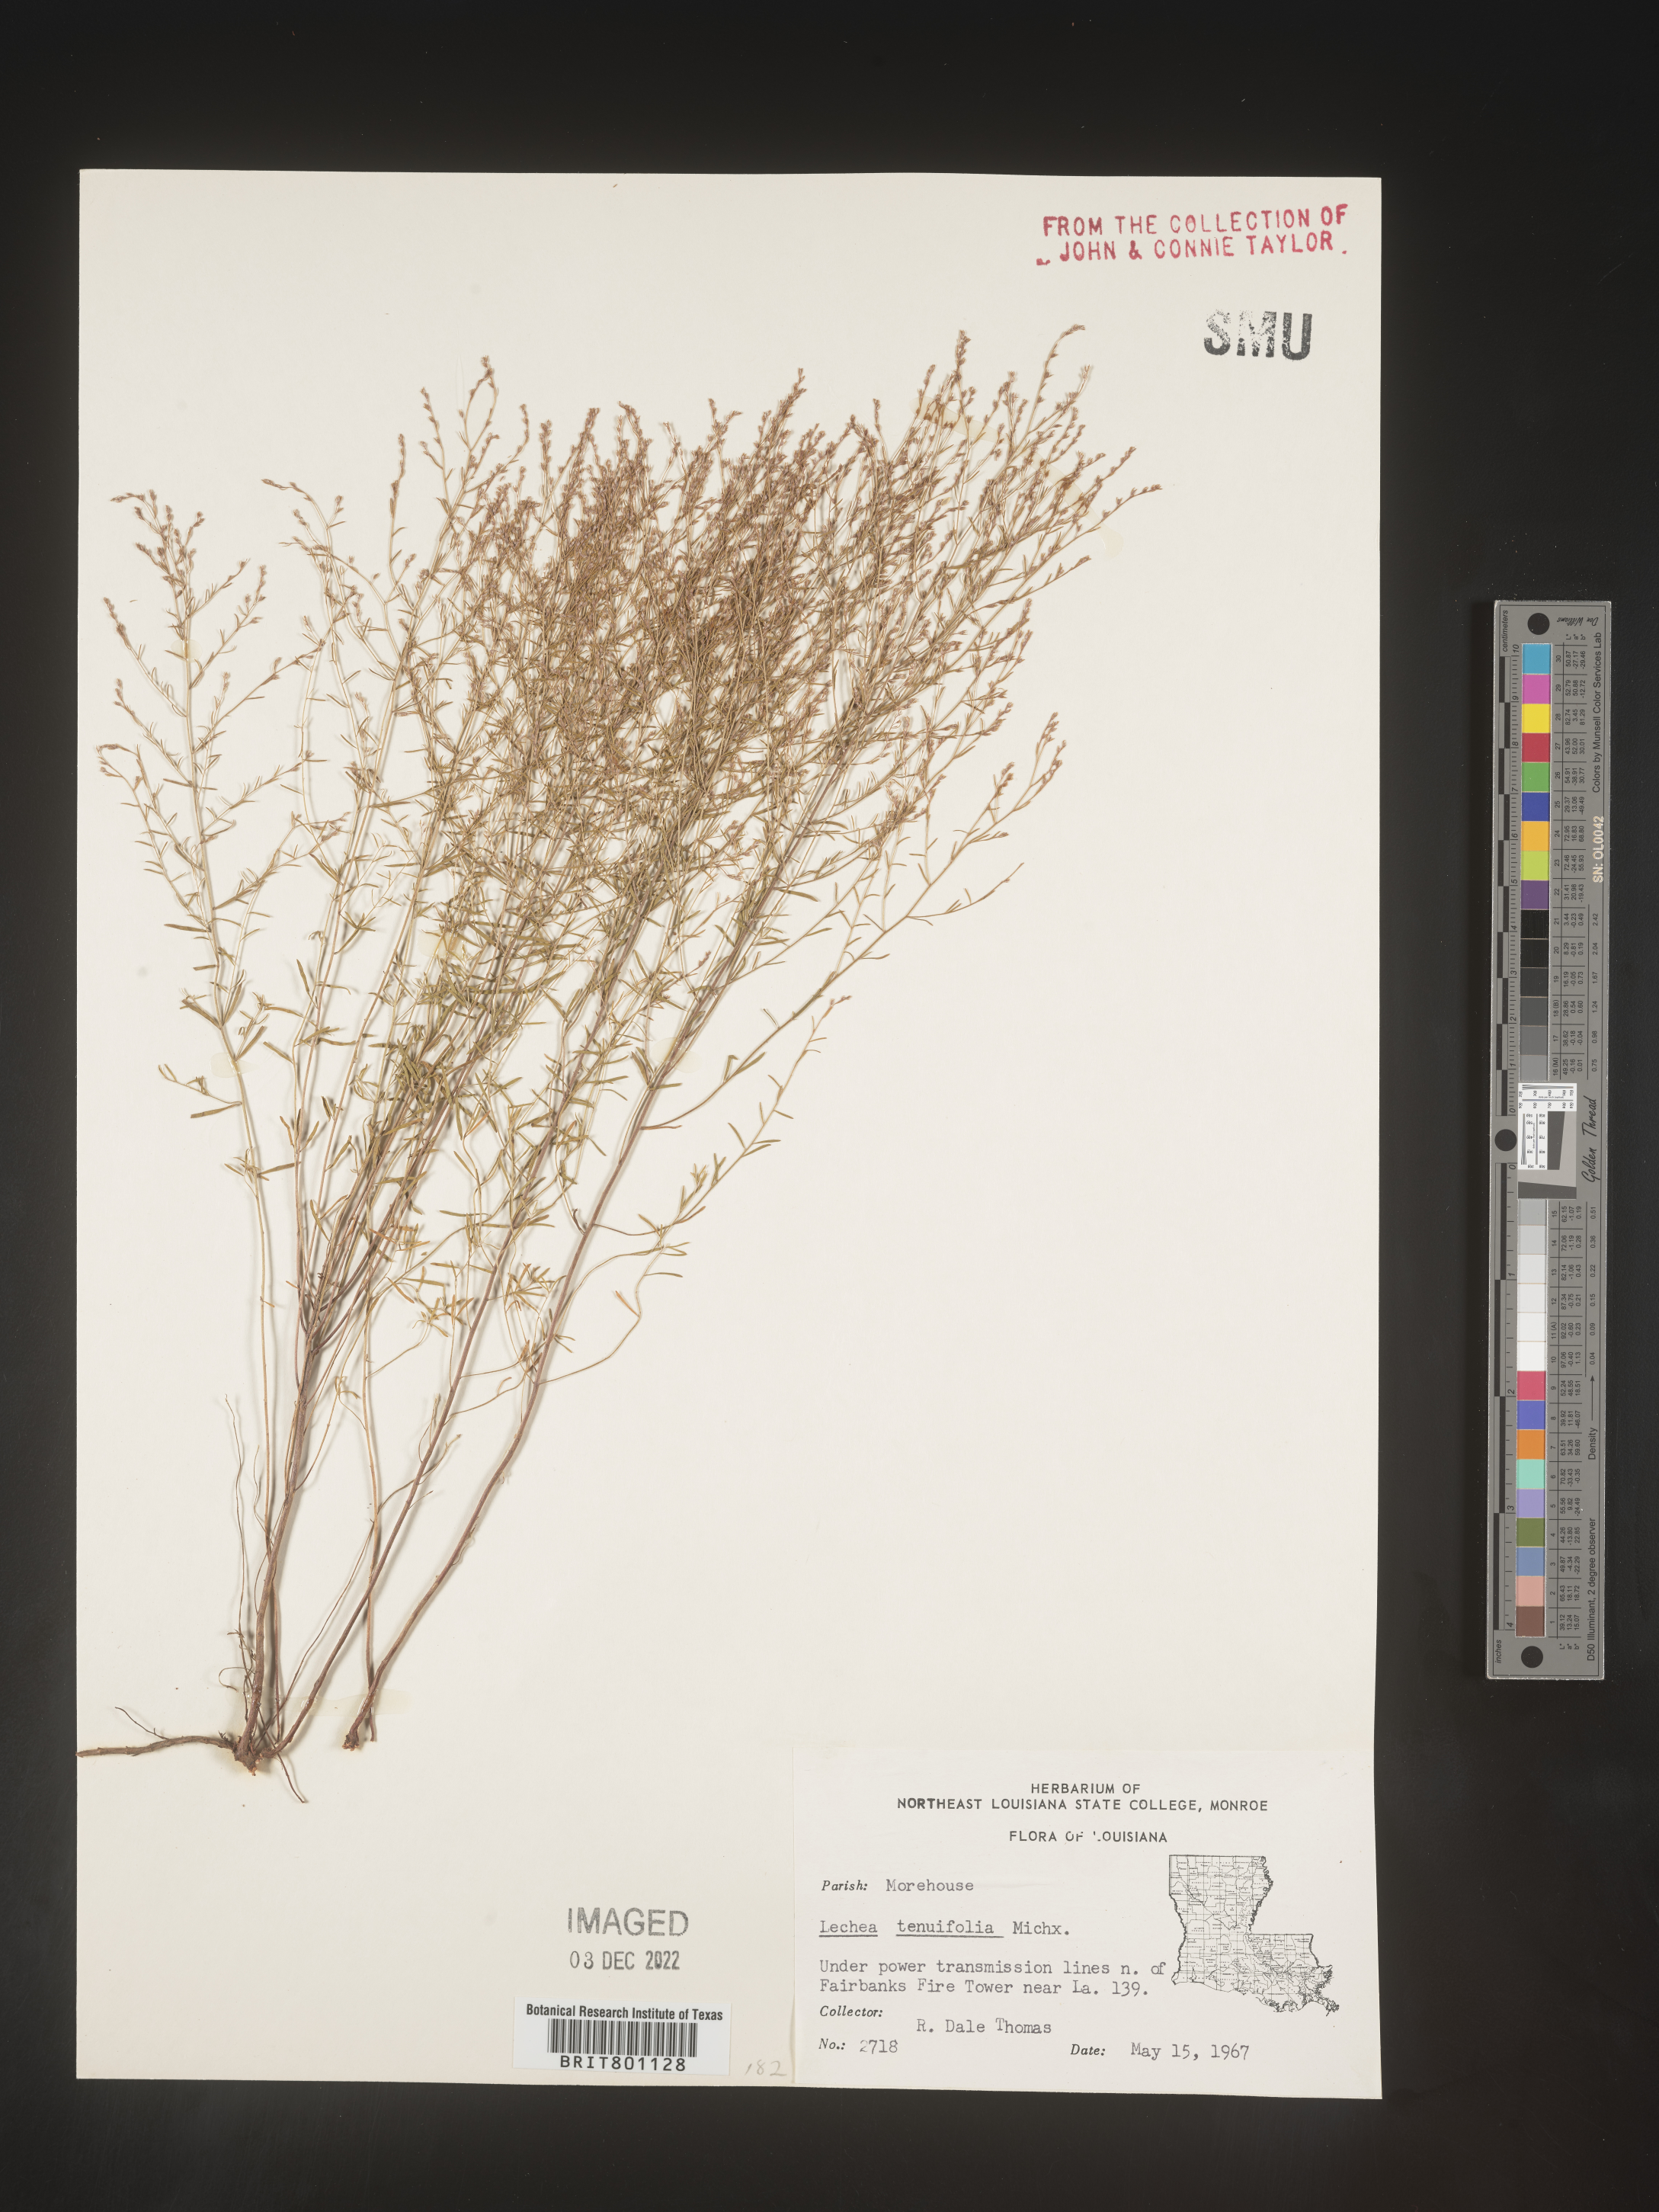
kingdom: Plantae
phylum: Tracheophyta
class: Magnoliopsida
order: Malvales
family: Cistaceae
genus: Lechea
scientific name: Lechea tenuifolia
